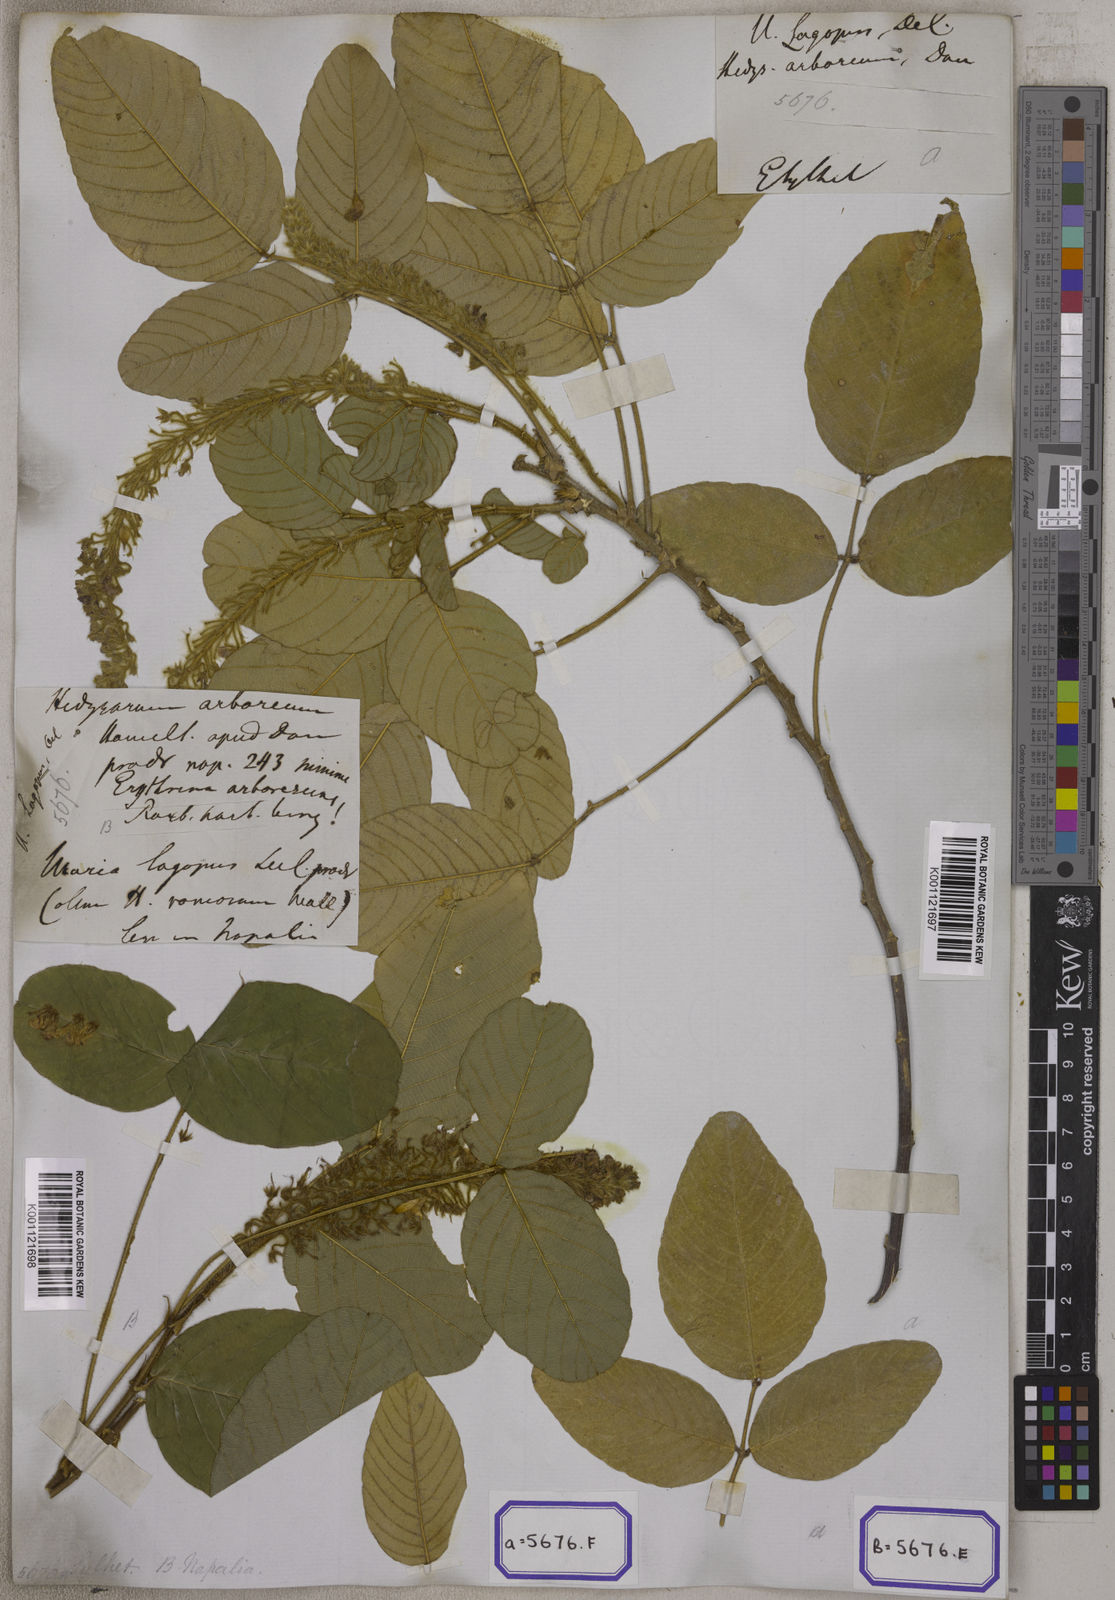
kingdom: Plantae
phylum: Tracheophyta
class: Magnoliopsida
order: Fabales
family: Fabaceae
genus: Uraria
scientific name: Uraria lagopodioides
